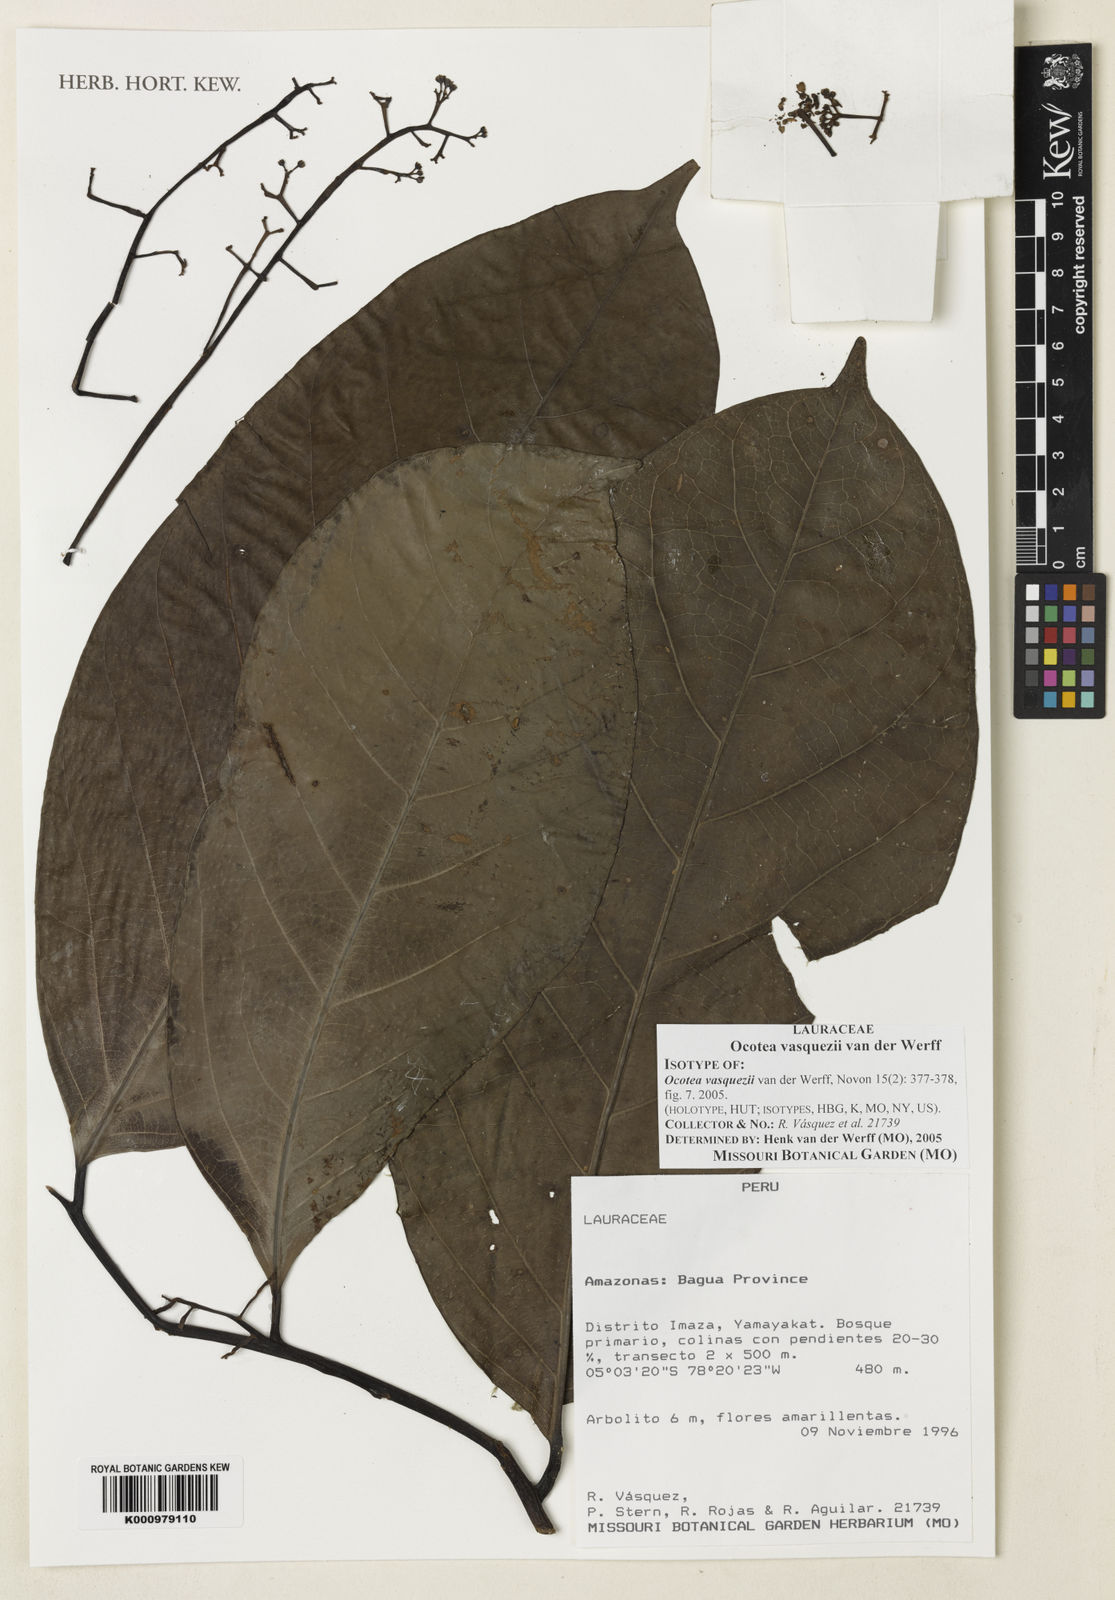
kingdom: Plantae
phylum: Tracheophyta
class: Magnoliopsida
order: Laurales
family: Lauraceae
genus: Ocotea
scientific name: Ocotea vasquezii
